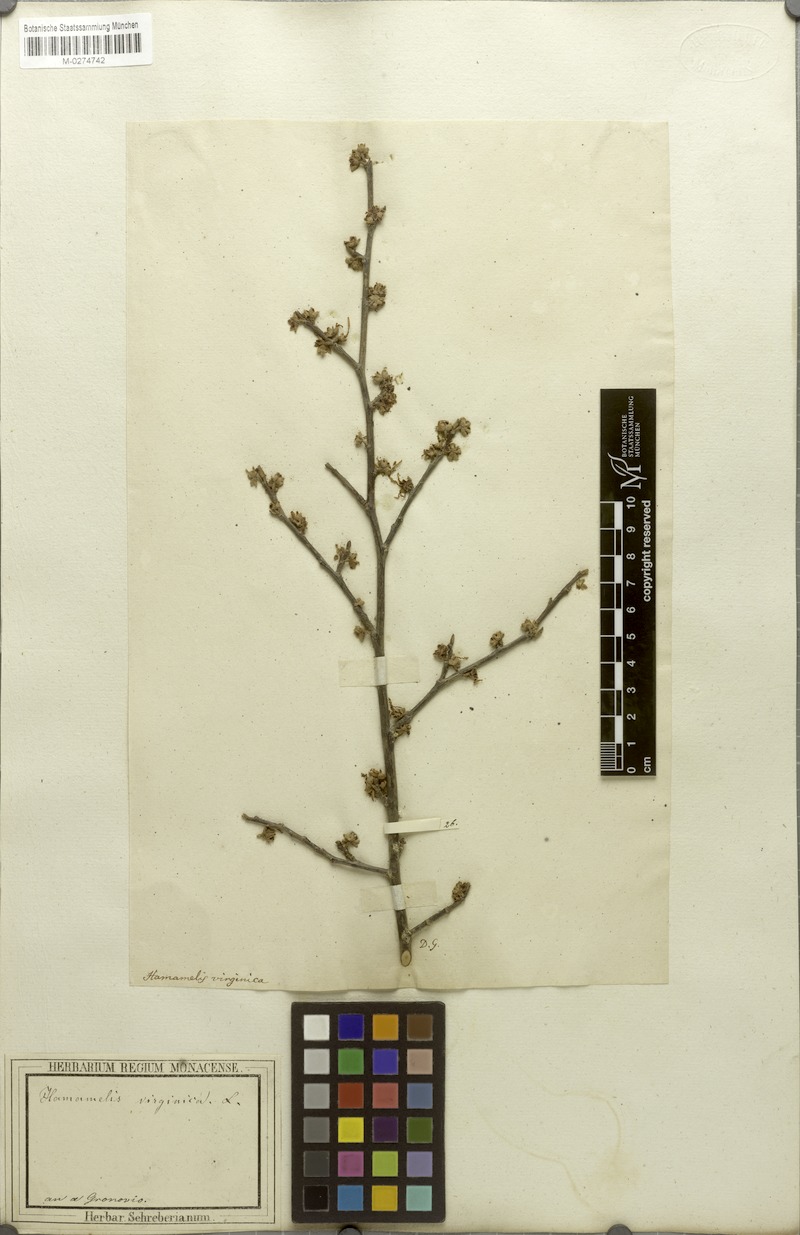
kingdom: Plantae
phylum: Tracheophyta
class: Magnoliopsida
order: Saxifragales
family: Hamamelidaceae
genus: Hamamelis
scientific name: Hamamelis virginiana
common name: Witch-hazel
